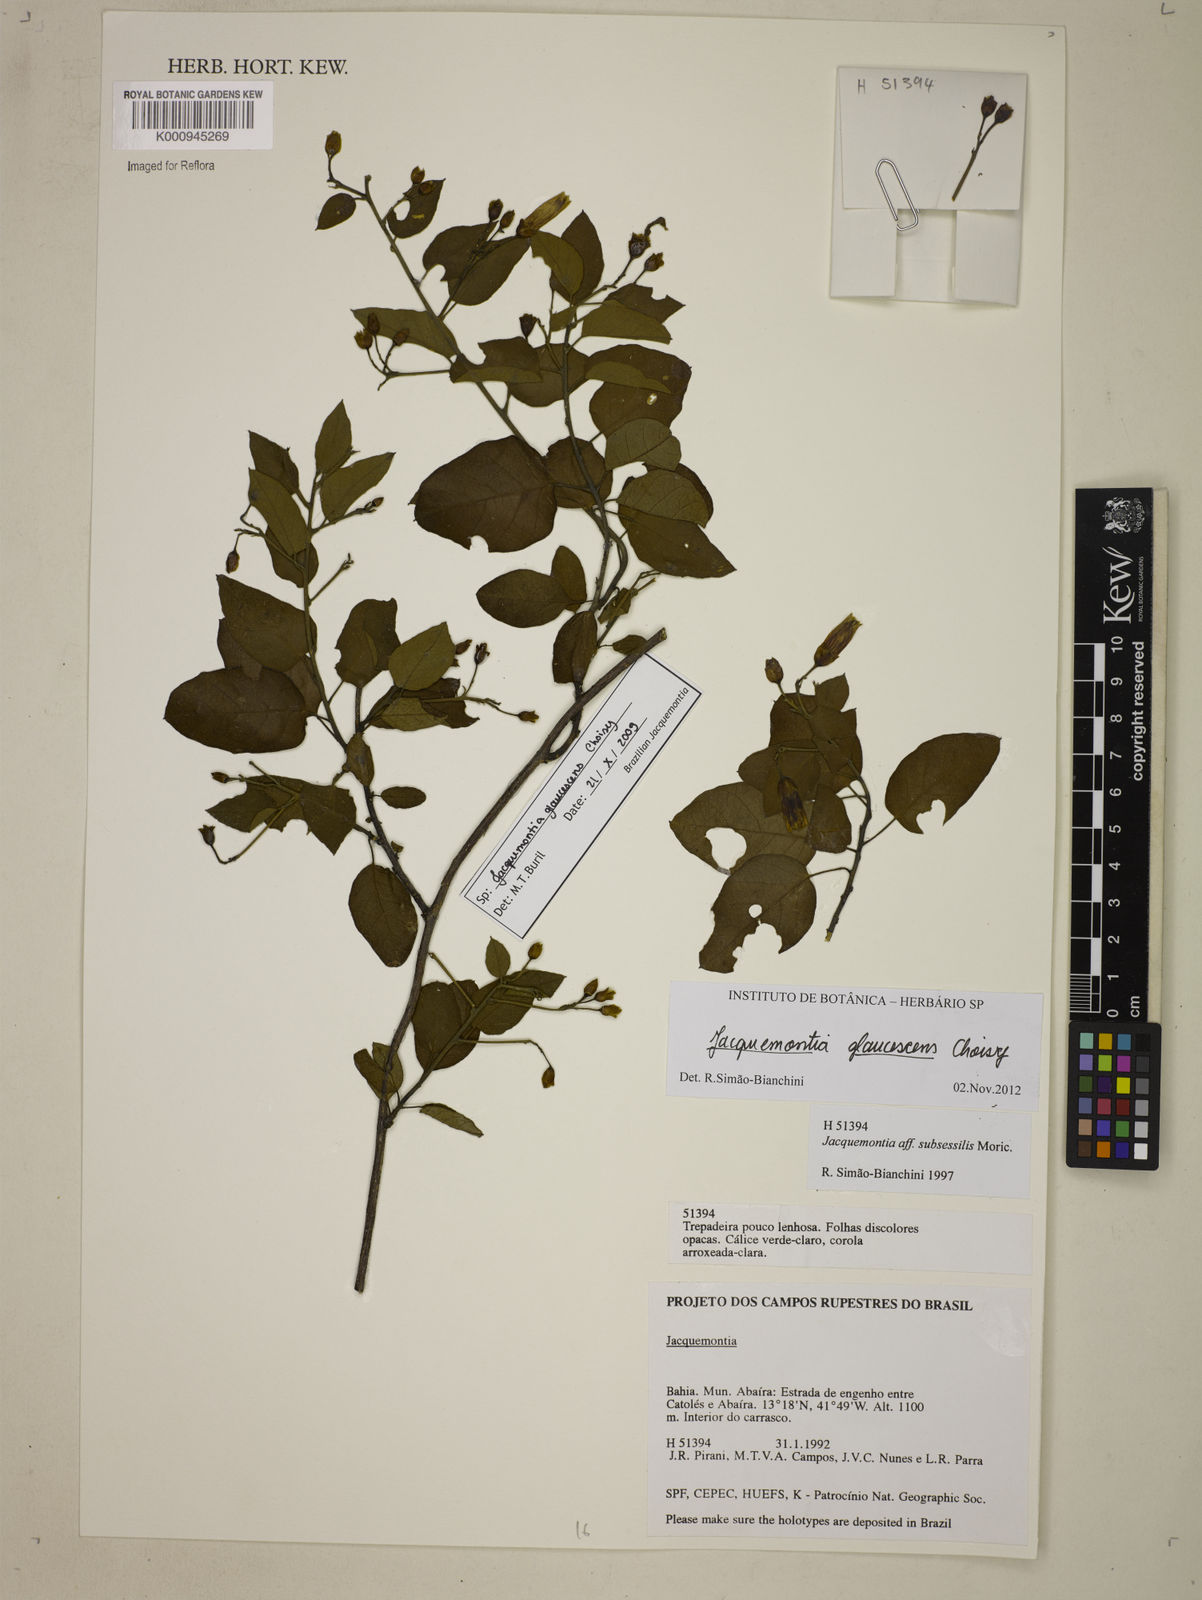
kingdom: Plantae
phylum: Tracheophyta
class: Magnoliopsida
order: Solanales
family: Convolvulaceae
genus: Jacquemontia
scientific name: Jacquemontia glaucescens
